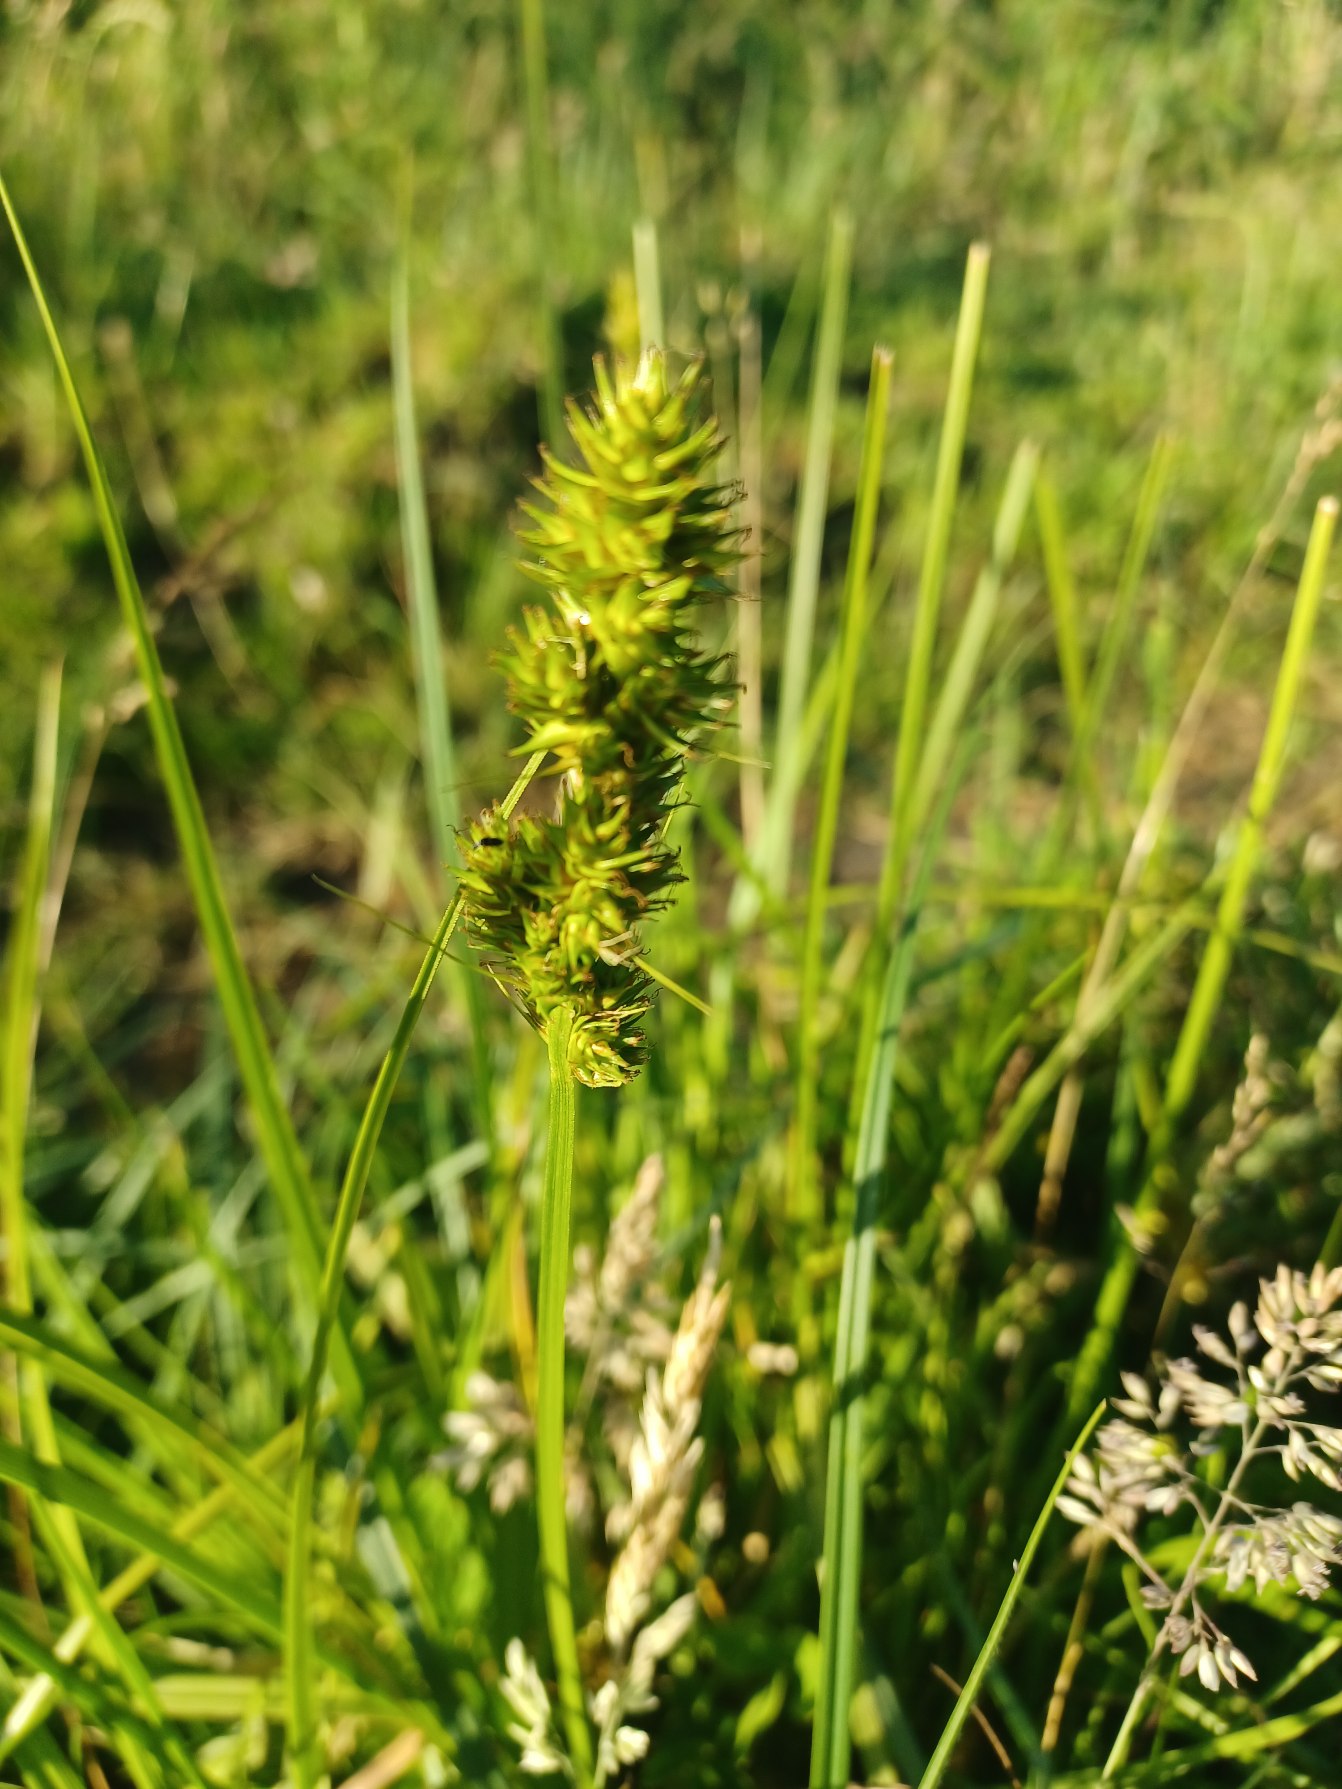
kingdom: Plantae
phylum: Tracheophyta
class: Liliopsida
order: Poales
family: Cyperaceae
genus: Carex
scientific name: Carex otrubae
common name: Sylt-star
